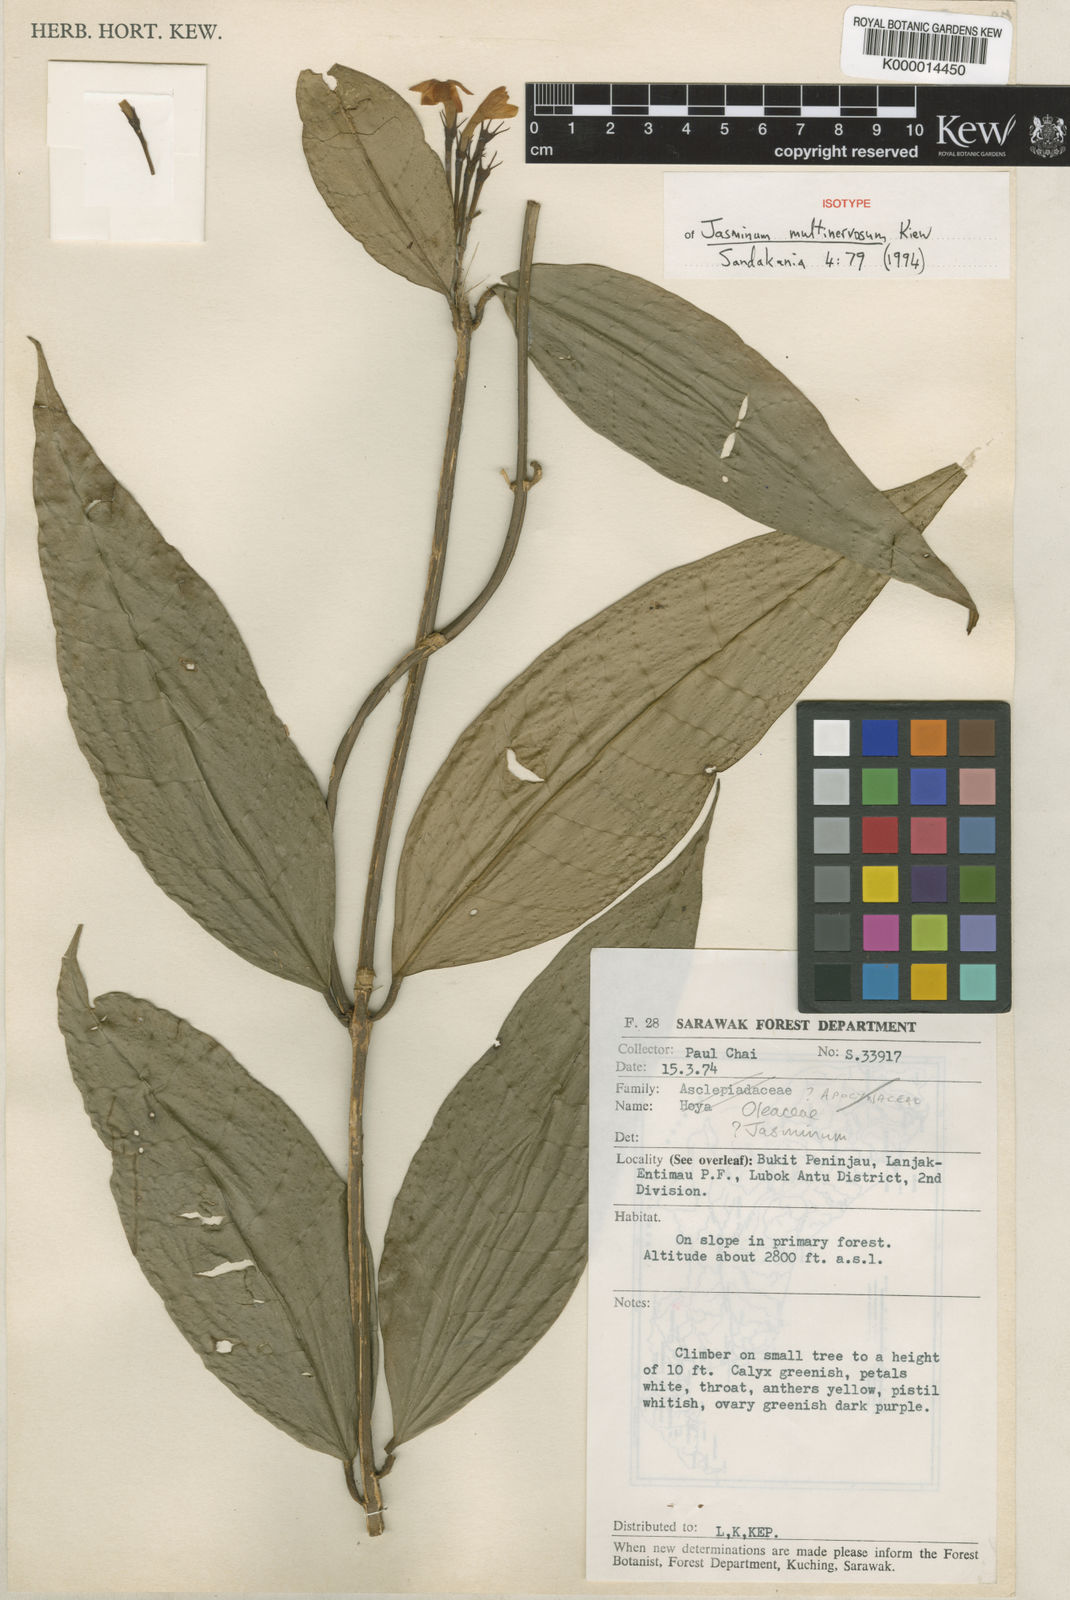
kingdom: Plantae
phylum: Tracheophyta
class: Magnoliopsida
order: Lamiales
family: Oleaceae
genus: Jasminum
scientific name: Jasminum multinervosum
